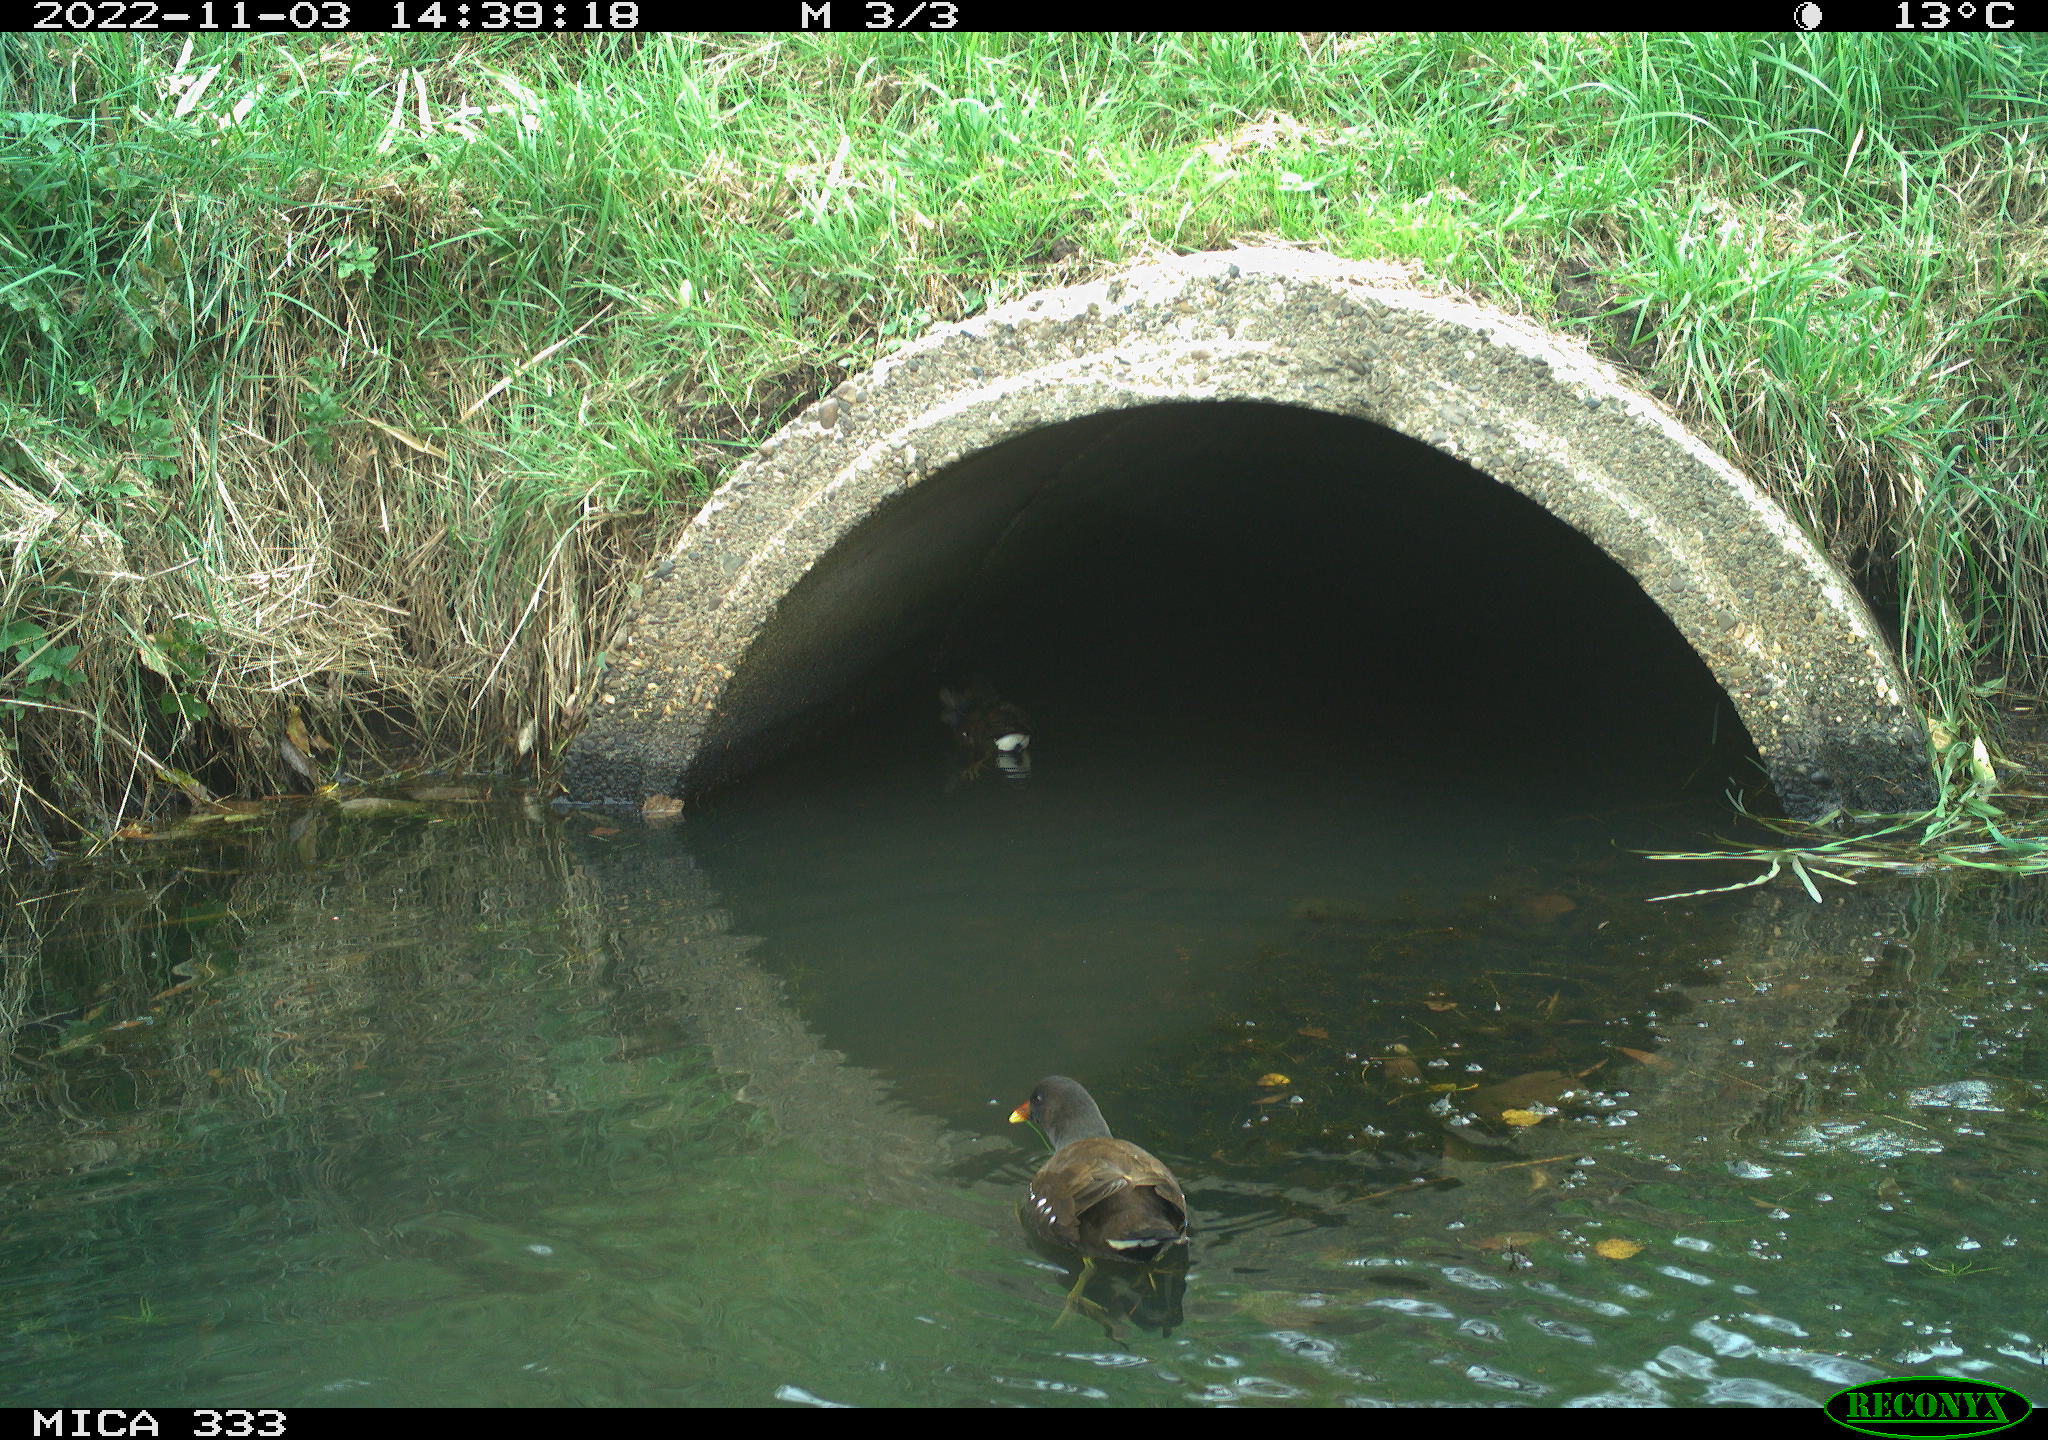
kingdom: Animalia
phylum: Chordata
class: Aves
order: Gruiformes
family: Rallidae
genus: Gallinula
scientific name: Gallinula chloropus
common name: Common moorhen
